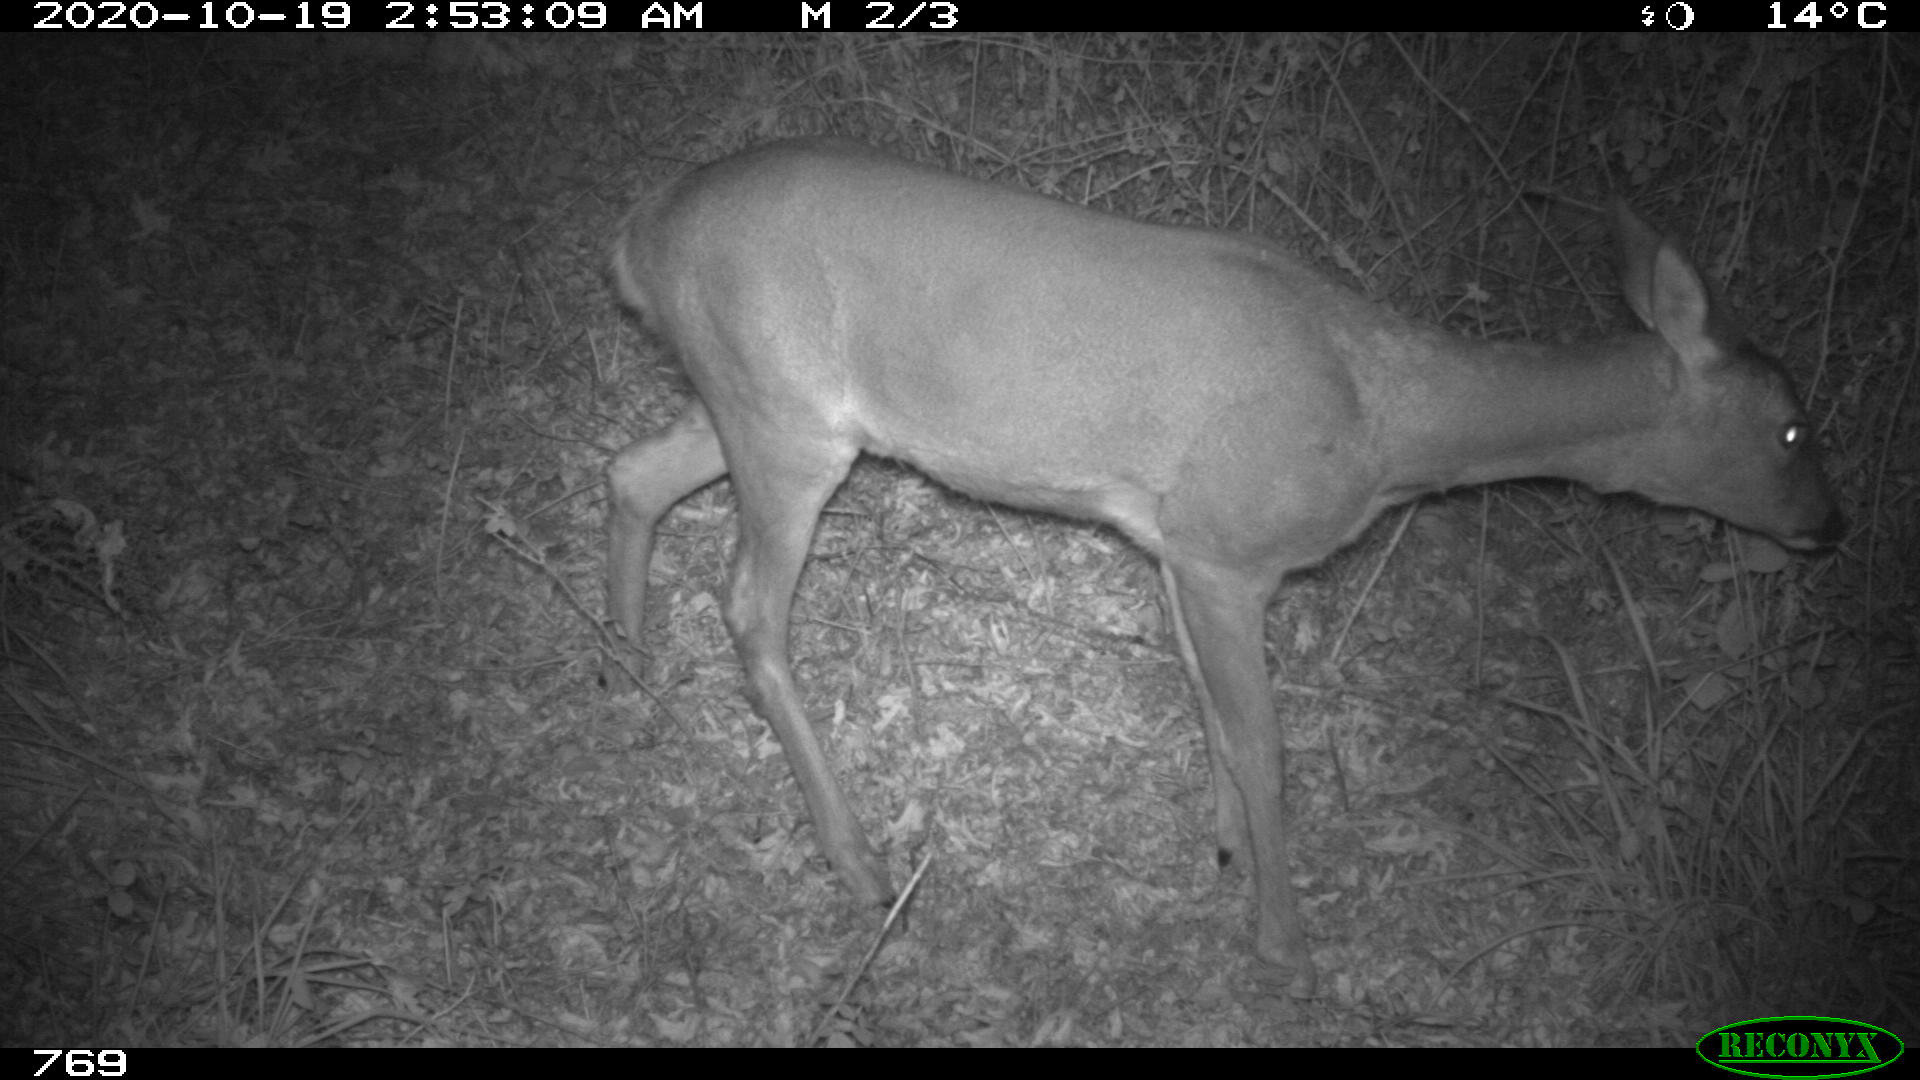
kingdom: Animalia
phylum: Chordata
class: Mammalia
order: Artiodactyla
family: Cervidae
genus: Capreolus
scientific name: Capreolus capreolus
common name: Western roe deer
